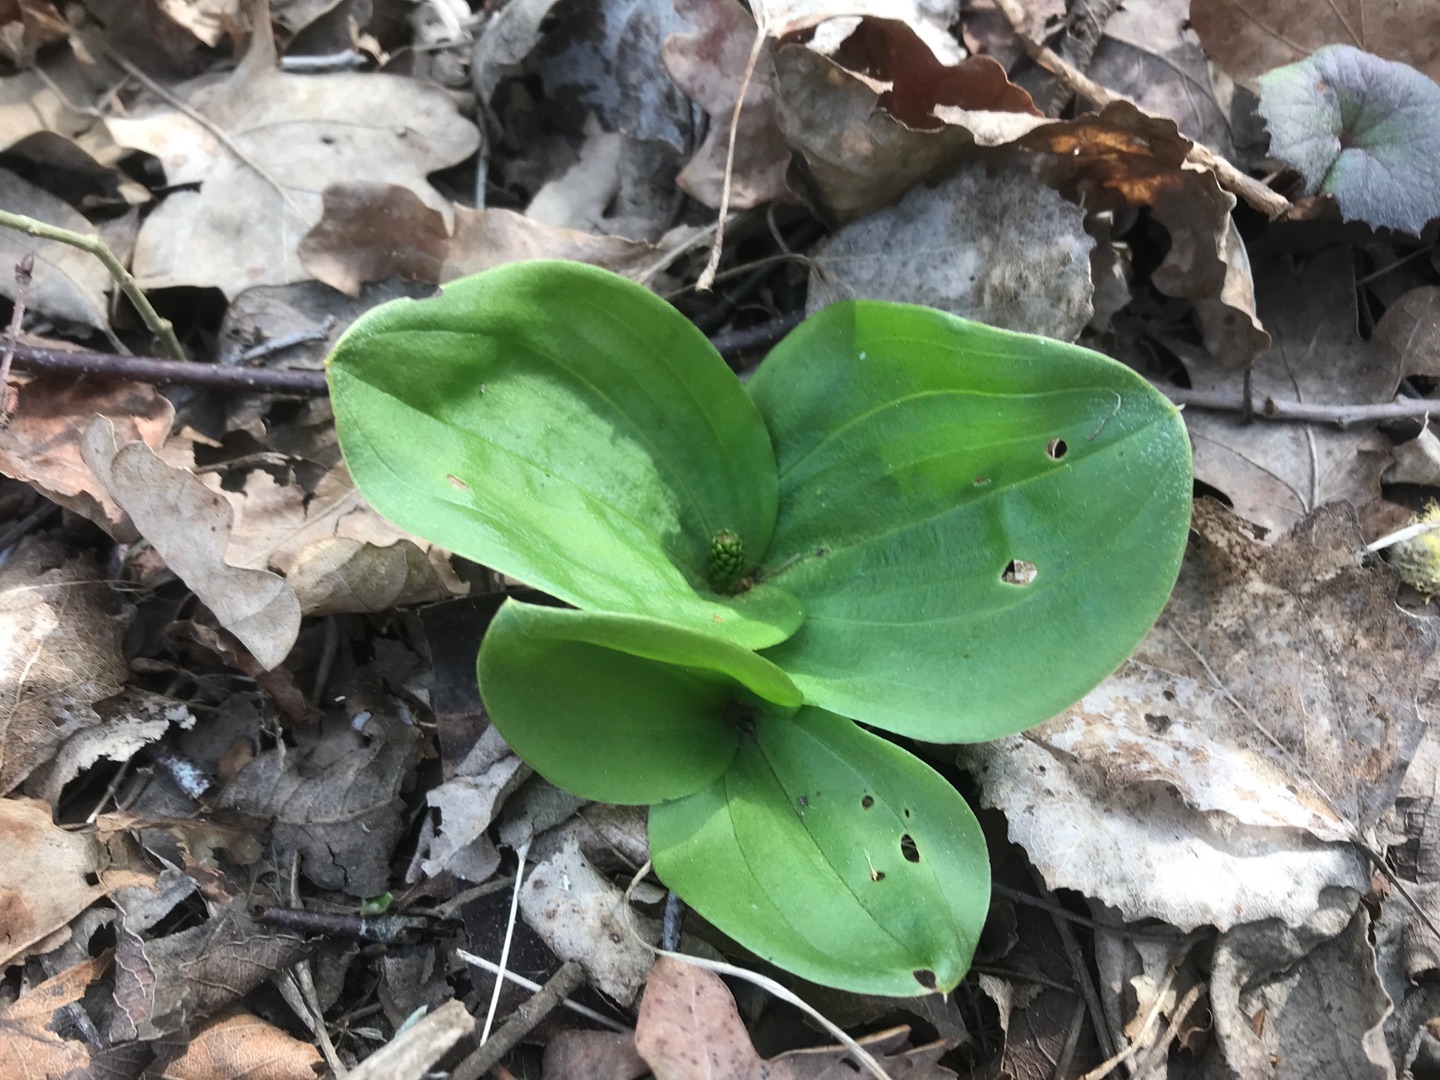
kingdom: Plantae
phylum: Tracheophyta
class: Liliopsida
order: Asparagales
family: Orchidaceae
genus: Neottia
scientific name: Neottia ovata
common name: Ægbladet fliglæbe
